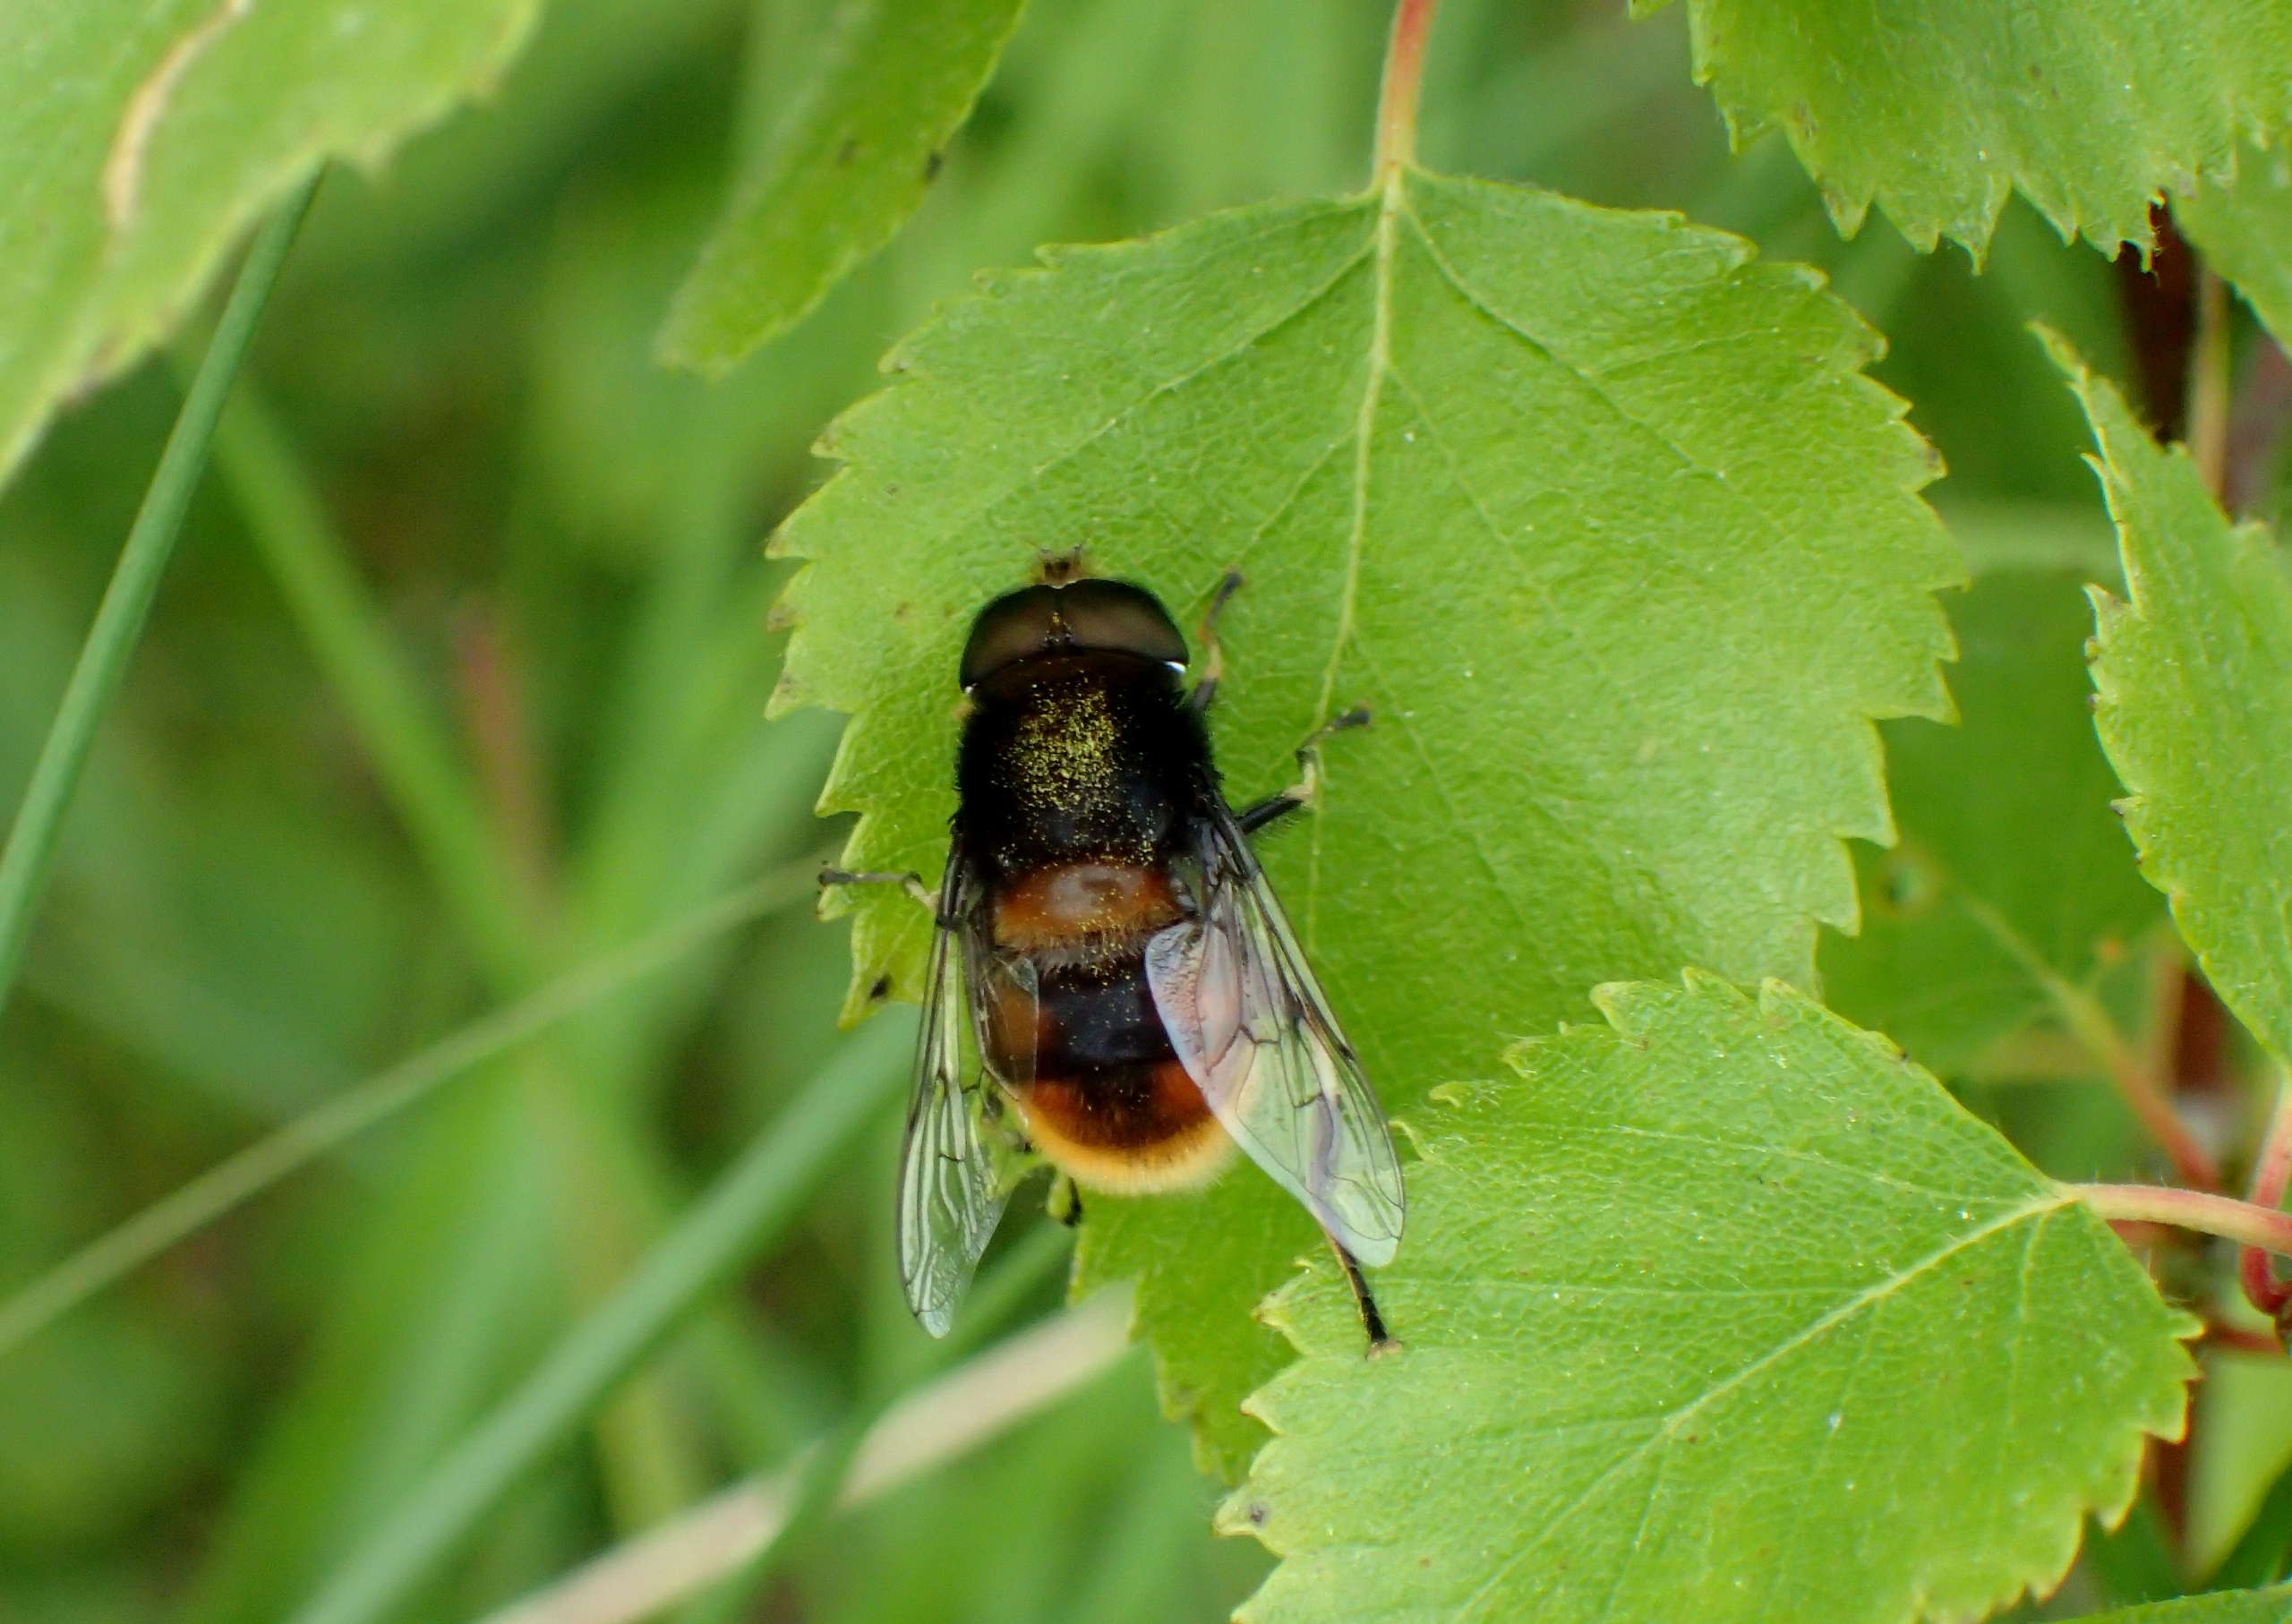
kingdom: Animalia
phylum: Arthropoda
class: Insecta
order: Diptera
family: Syrphidae
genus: Eristalis
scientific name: Eristalis intricaria
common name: Håret dyndflue
